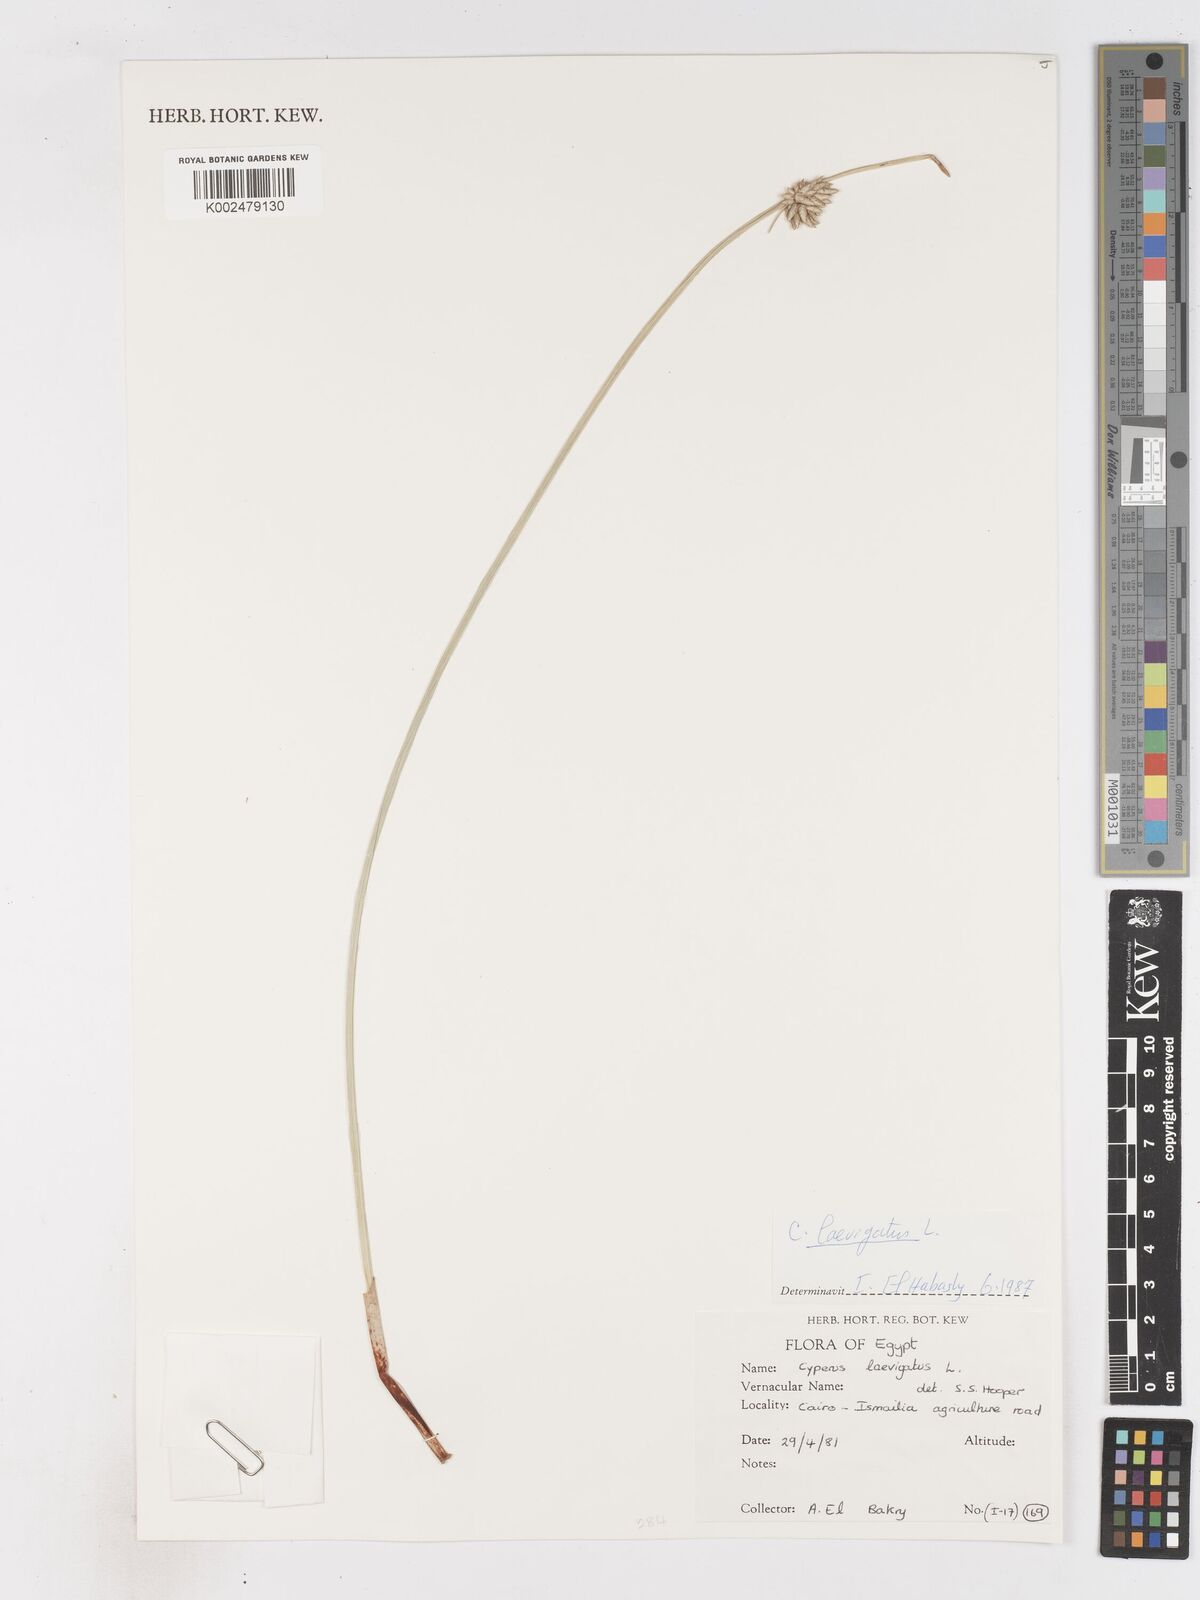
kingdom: Plantae
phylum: Tracheophyta
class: Liliopsida
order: Poales
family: Cyperaceae
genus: Cyperus
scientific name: Cyperus laevigatus
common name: Smooth flat sedge
